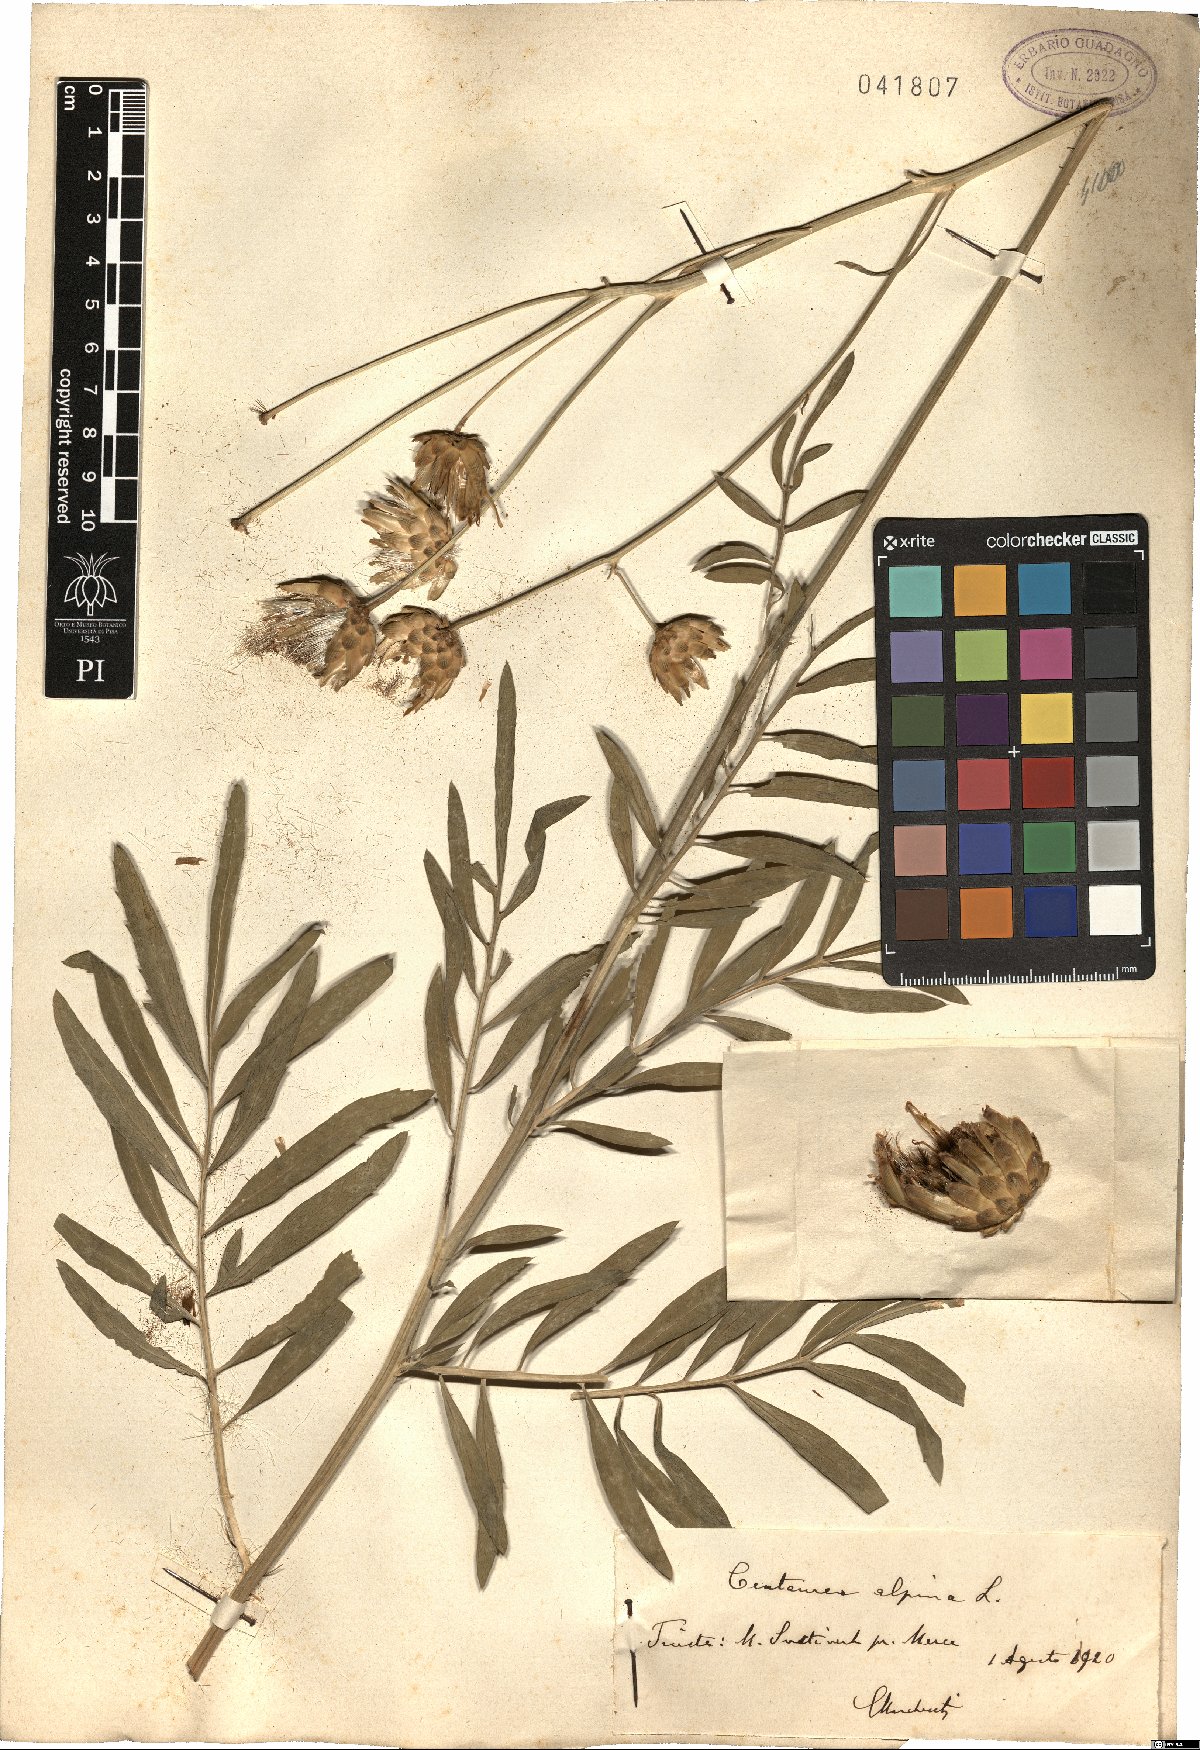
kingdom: Plantae
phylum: Tracheophyta
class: Magnoliopsida
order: Asterales
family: Asteraceae
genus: Rhaponticoides
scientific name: Rhaponticoides alpina
